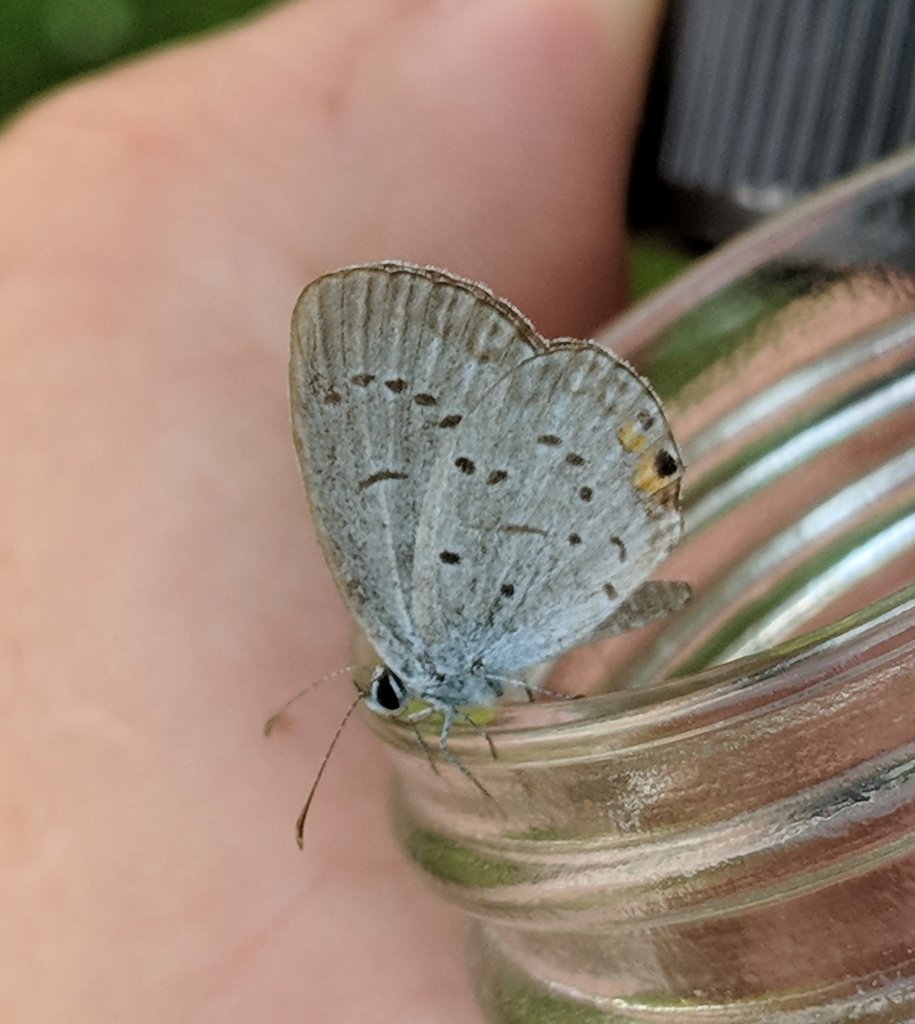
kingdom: Animalia
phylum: Arthropoda
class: Insecta
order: Lepidoptera
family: Lycaenidae
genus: Elkalyce
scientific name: Elkalyce comyntas
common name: Eastern Tailed-Blue
